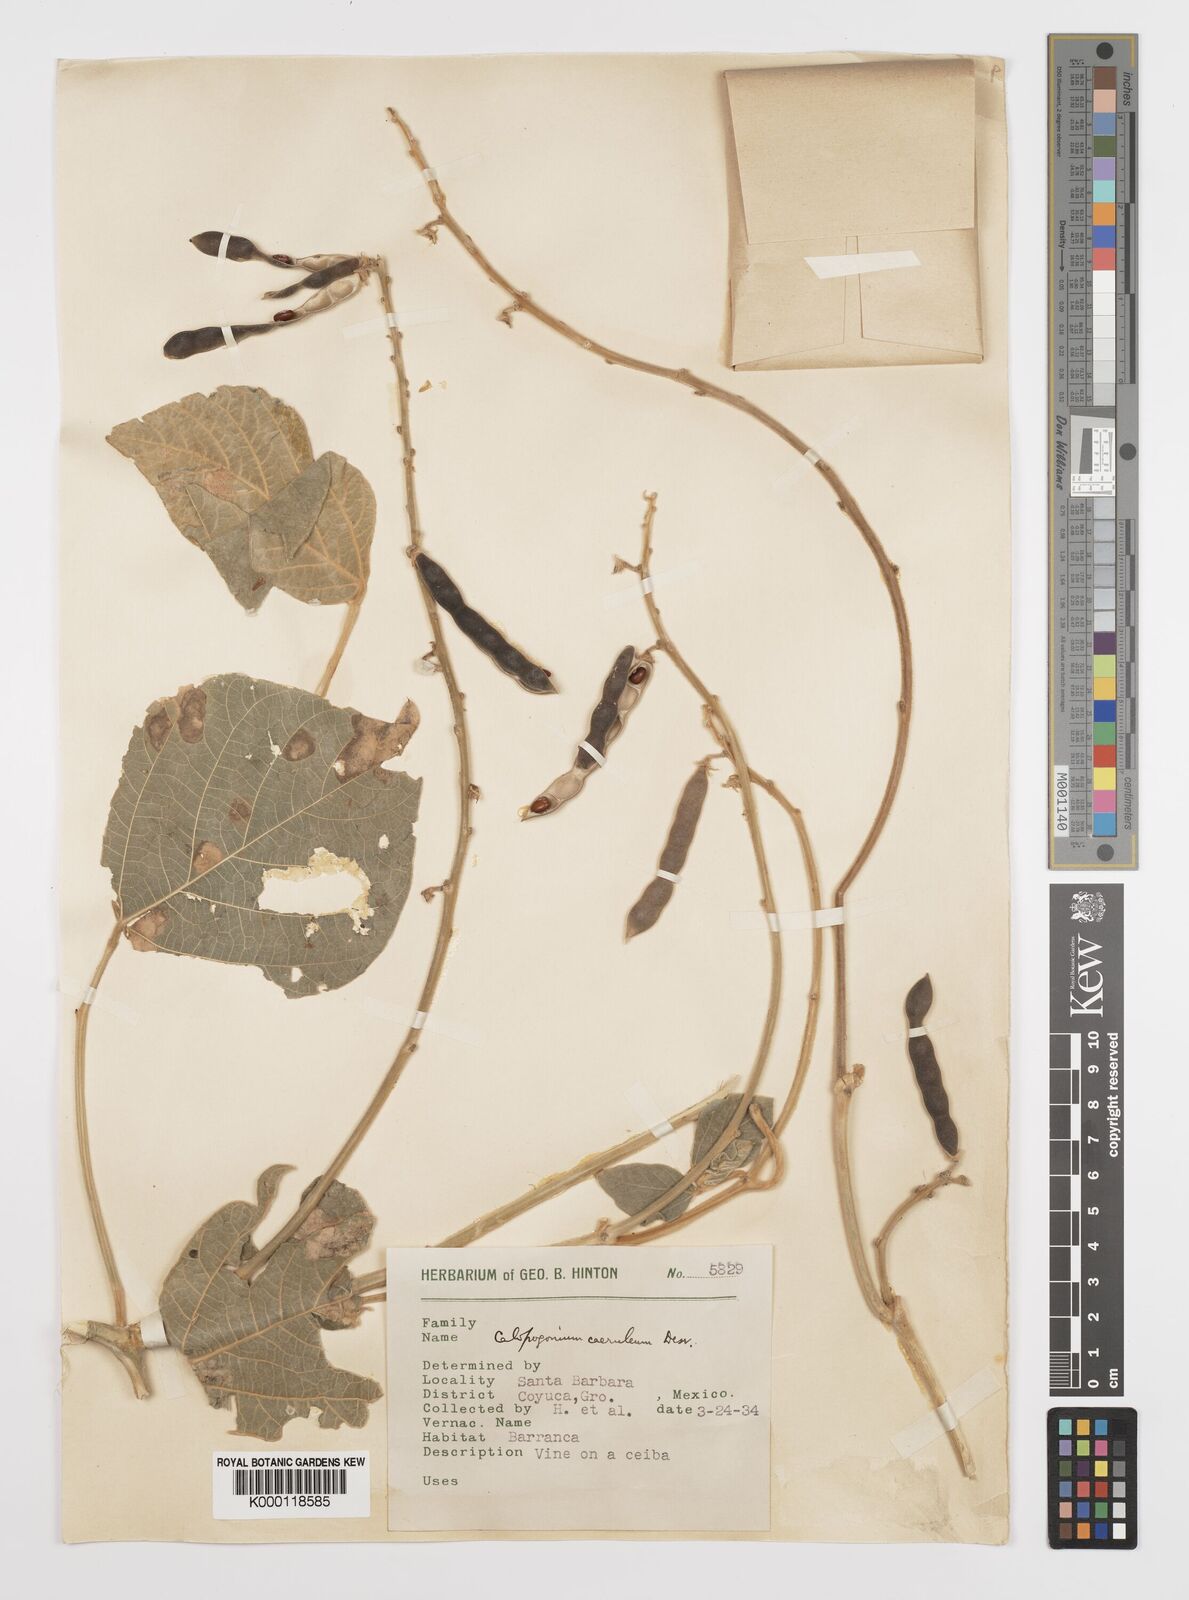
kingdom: Plantae
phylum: Tracheophyta
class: Magnoliopsida
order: Fabales
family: Fabaceae
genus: Calopogonium
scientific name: Calopogonium
